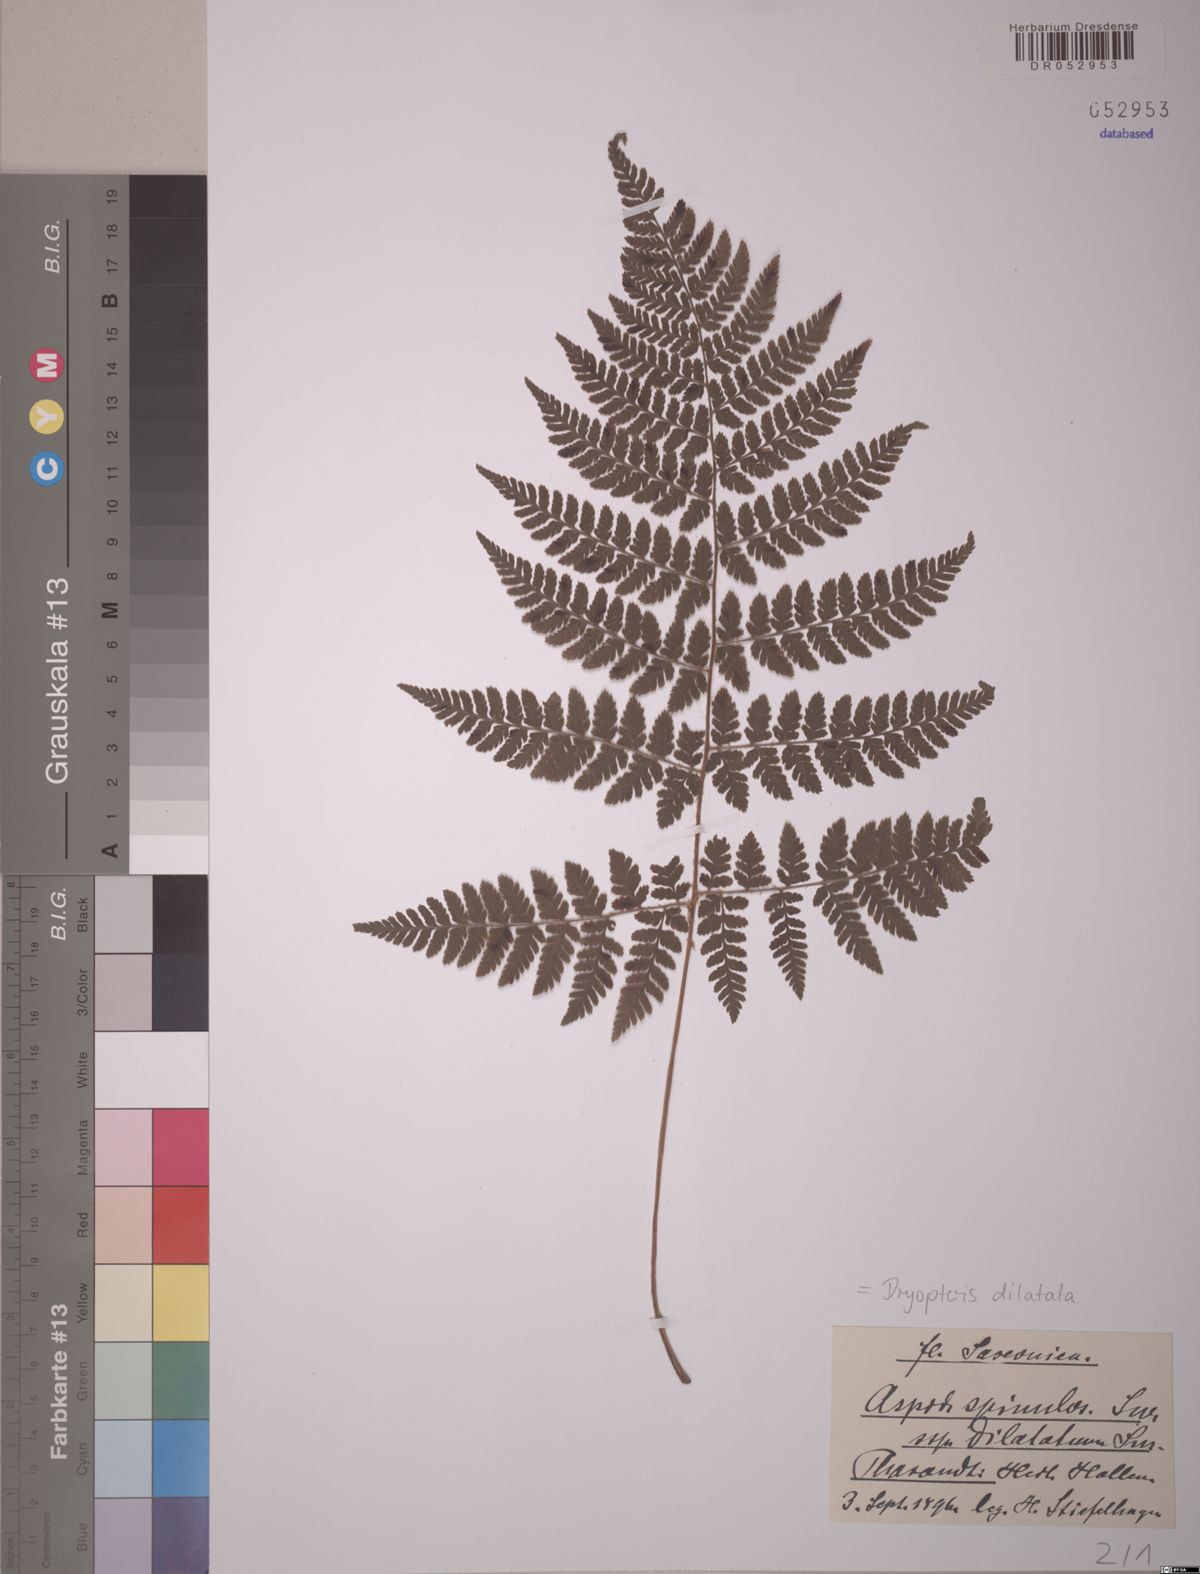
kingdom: Plantae
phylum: Tracheophyta
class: Polypodiopsida
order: Polypodiales
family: Dryopteridaceae
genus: Dryopteris
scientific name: Dryopteris dilatata
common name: Broad buckler-fern
